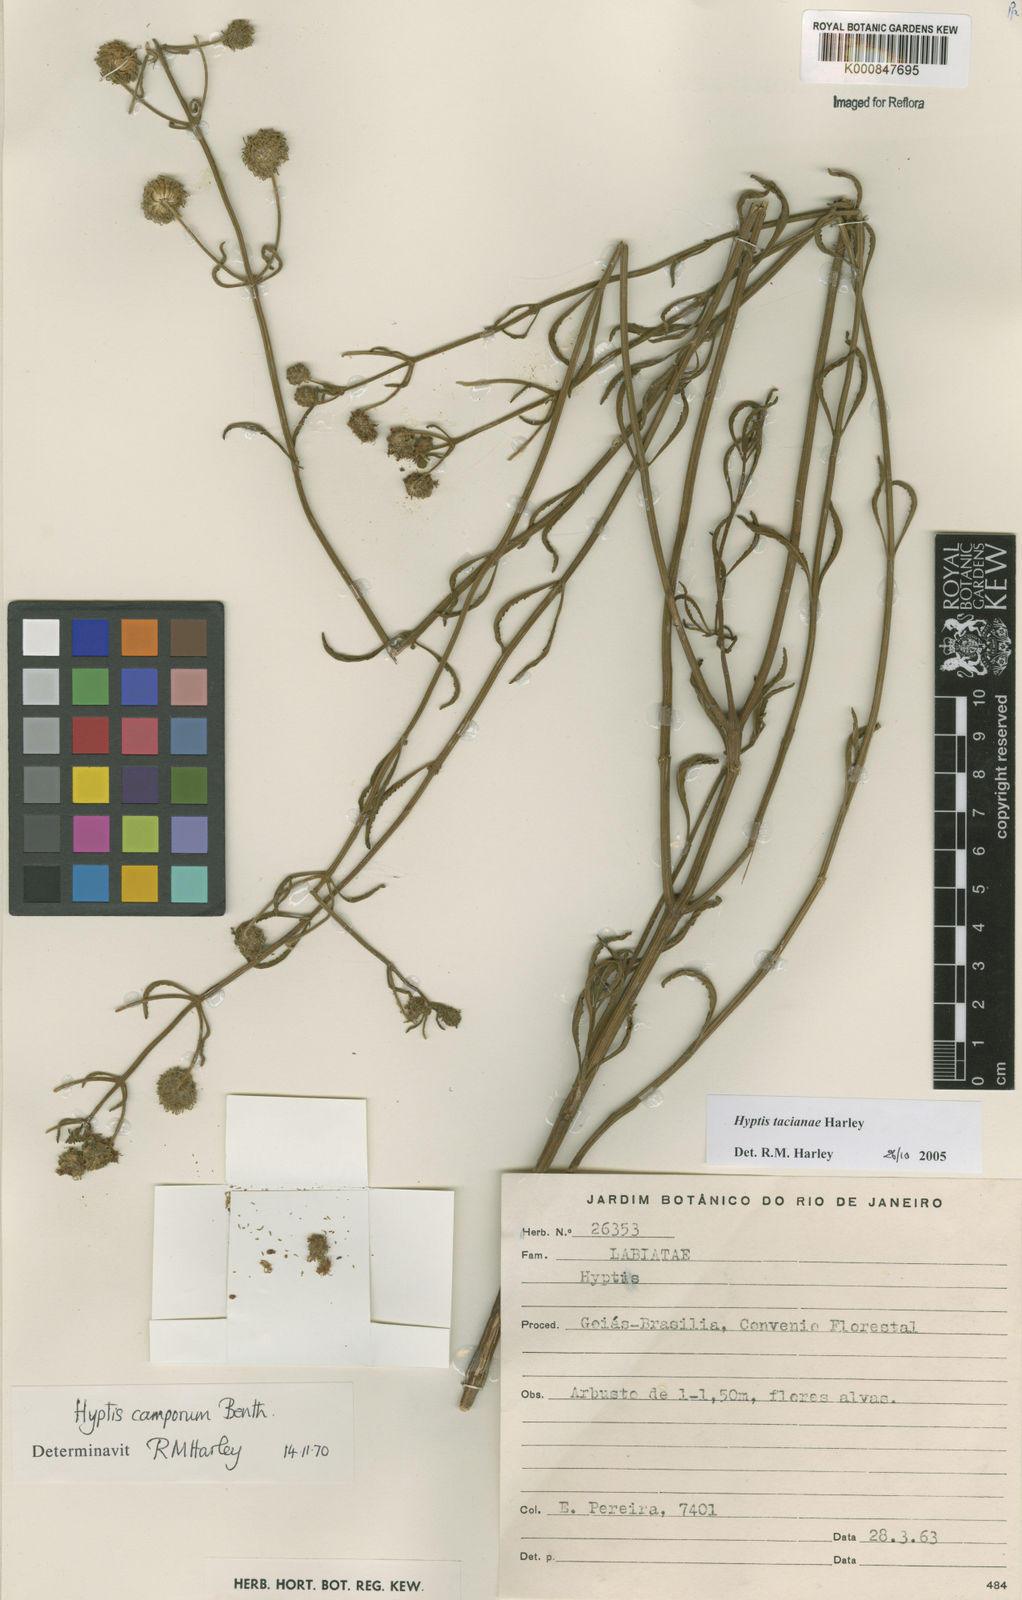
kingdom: Plantae
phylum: Tracheophyta
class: Magnoliopsida
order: Lamiales
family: Lamiaceae
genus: Cyanocephalus
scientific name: Cyanocephalus tacianae
